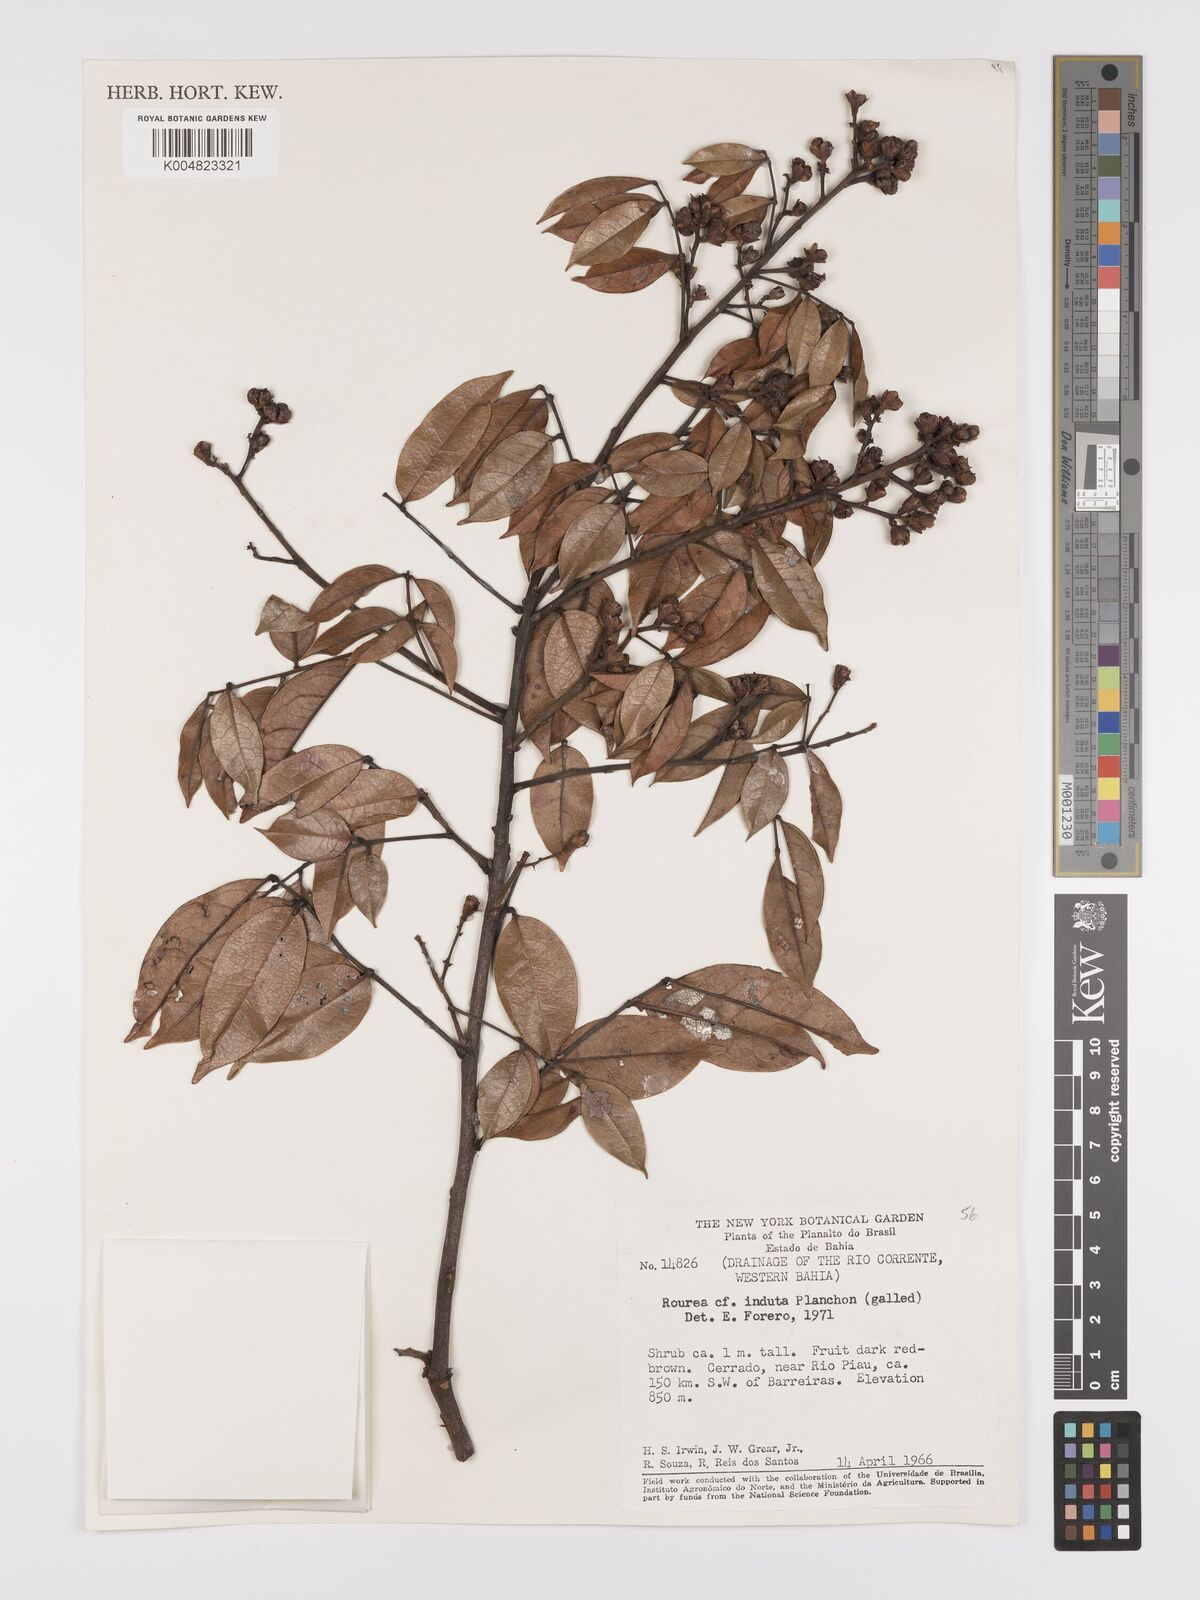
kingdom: Plantae
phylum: Tracheophyta
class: Magnoliopsida
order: Oxalidales
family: Connaraceae
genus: Rourea
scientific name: Rourea induta
